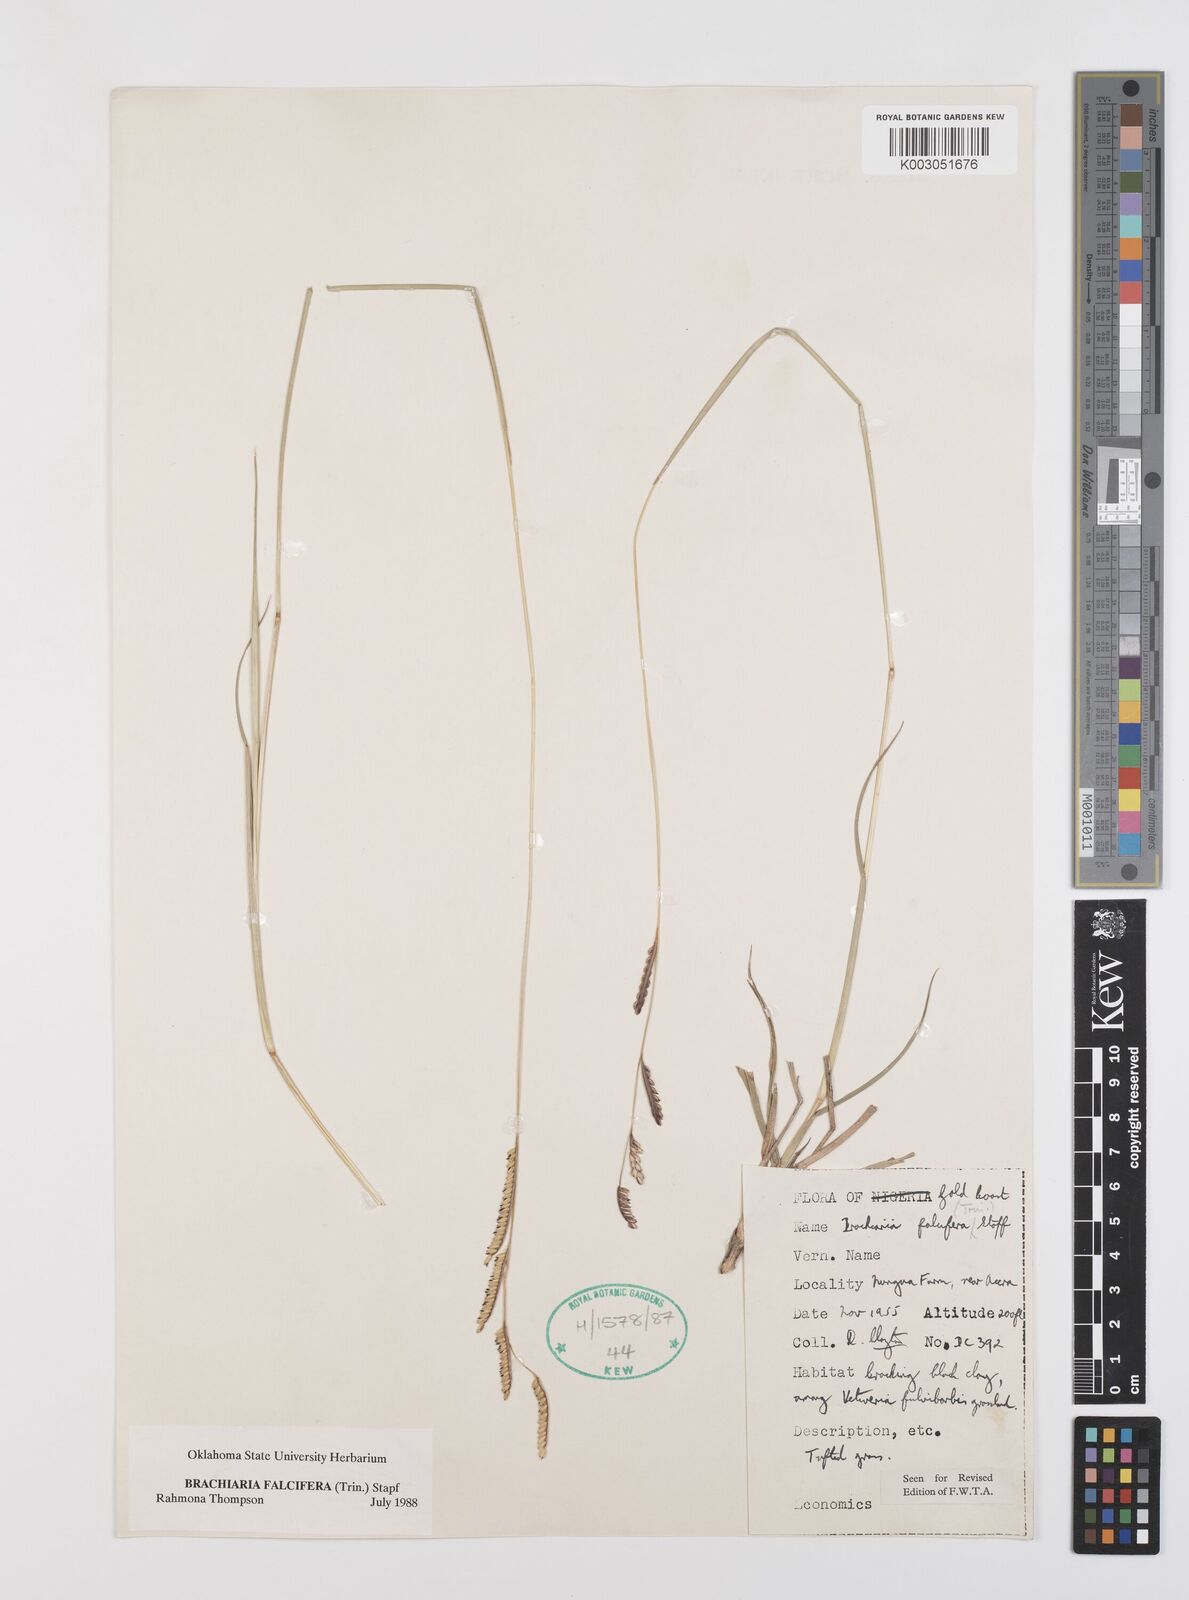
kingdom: Plantae
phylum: Tracheophyta
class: Liliopsida
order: Poales
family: Poaceae
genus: Urochloa
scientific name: Urochloa falcifera
